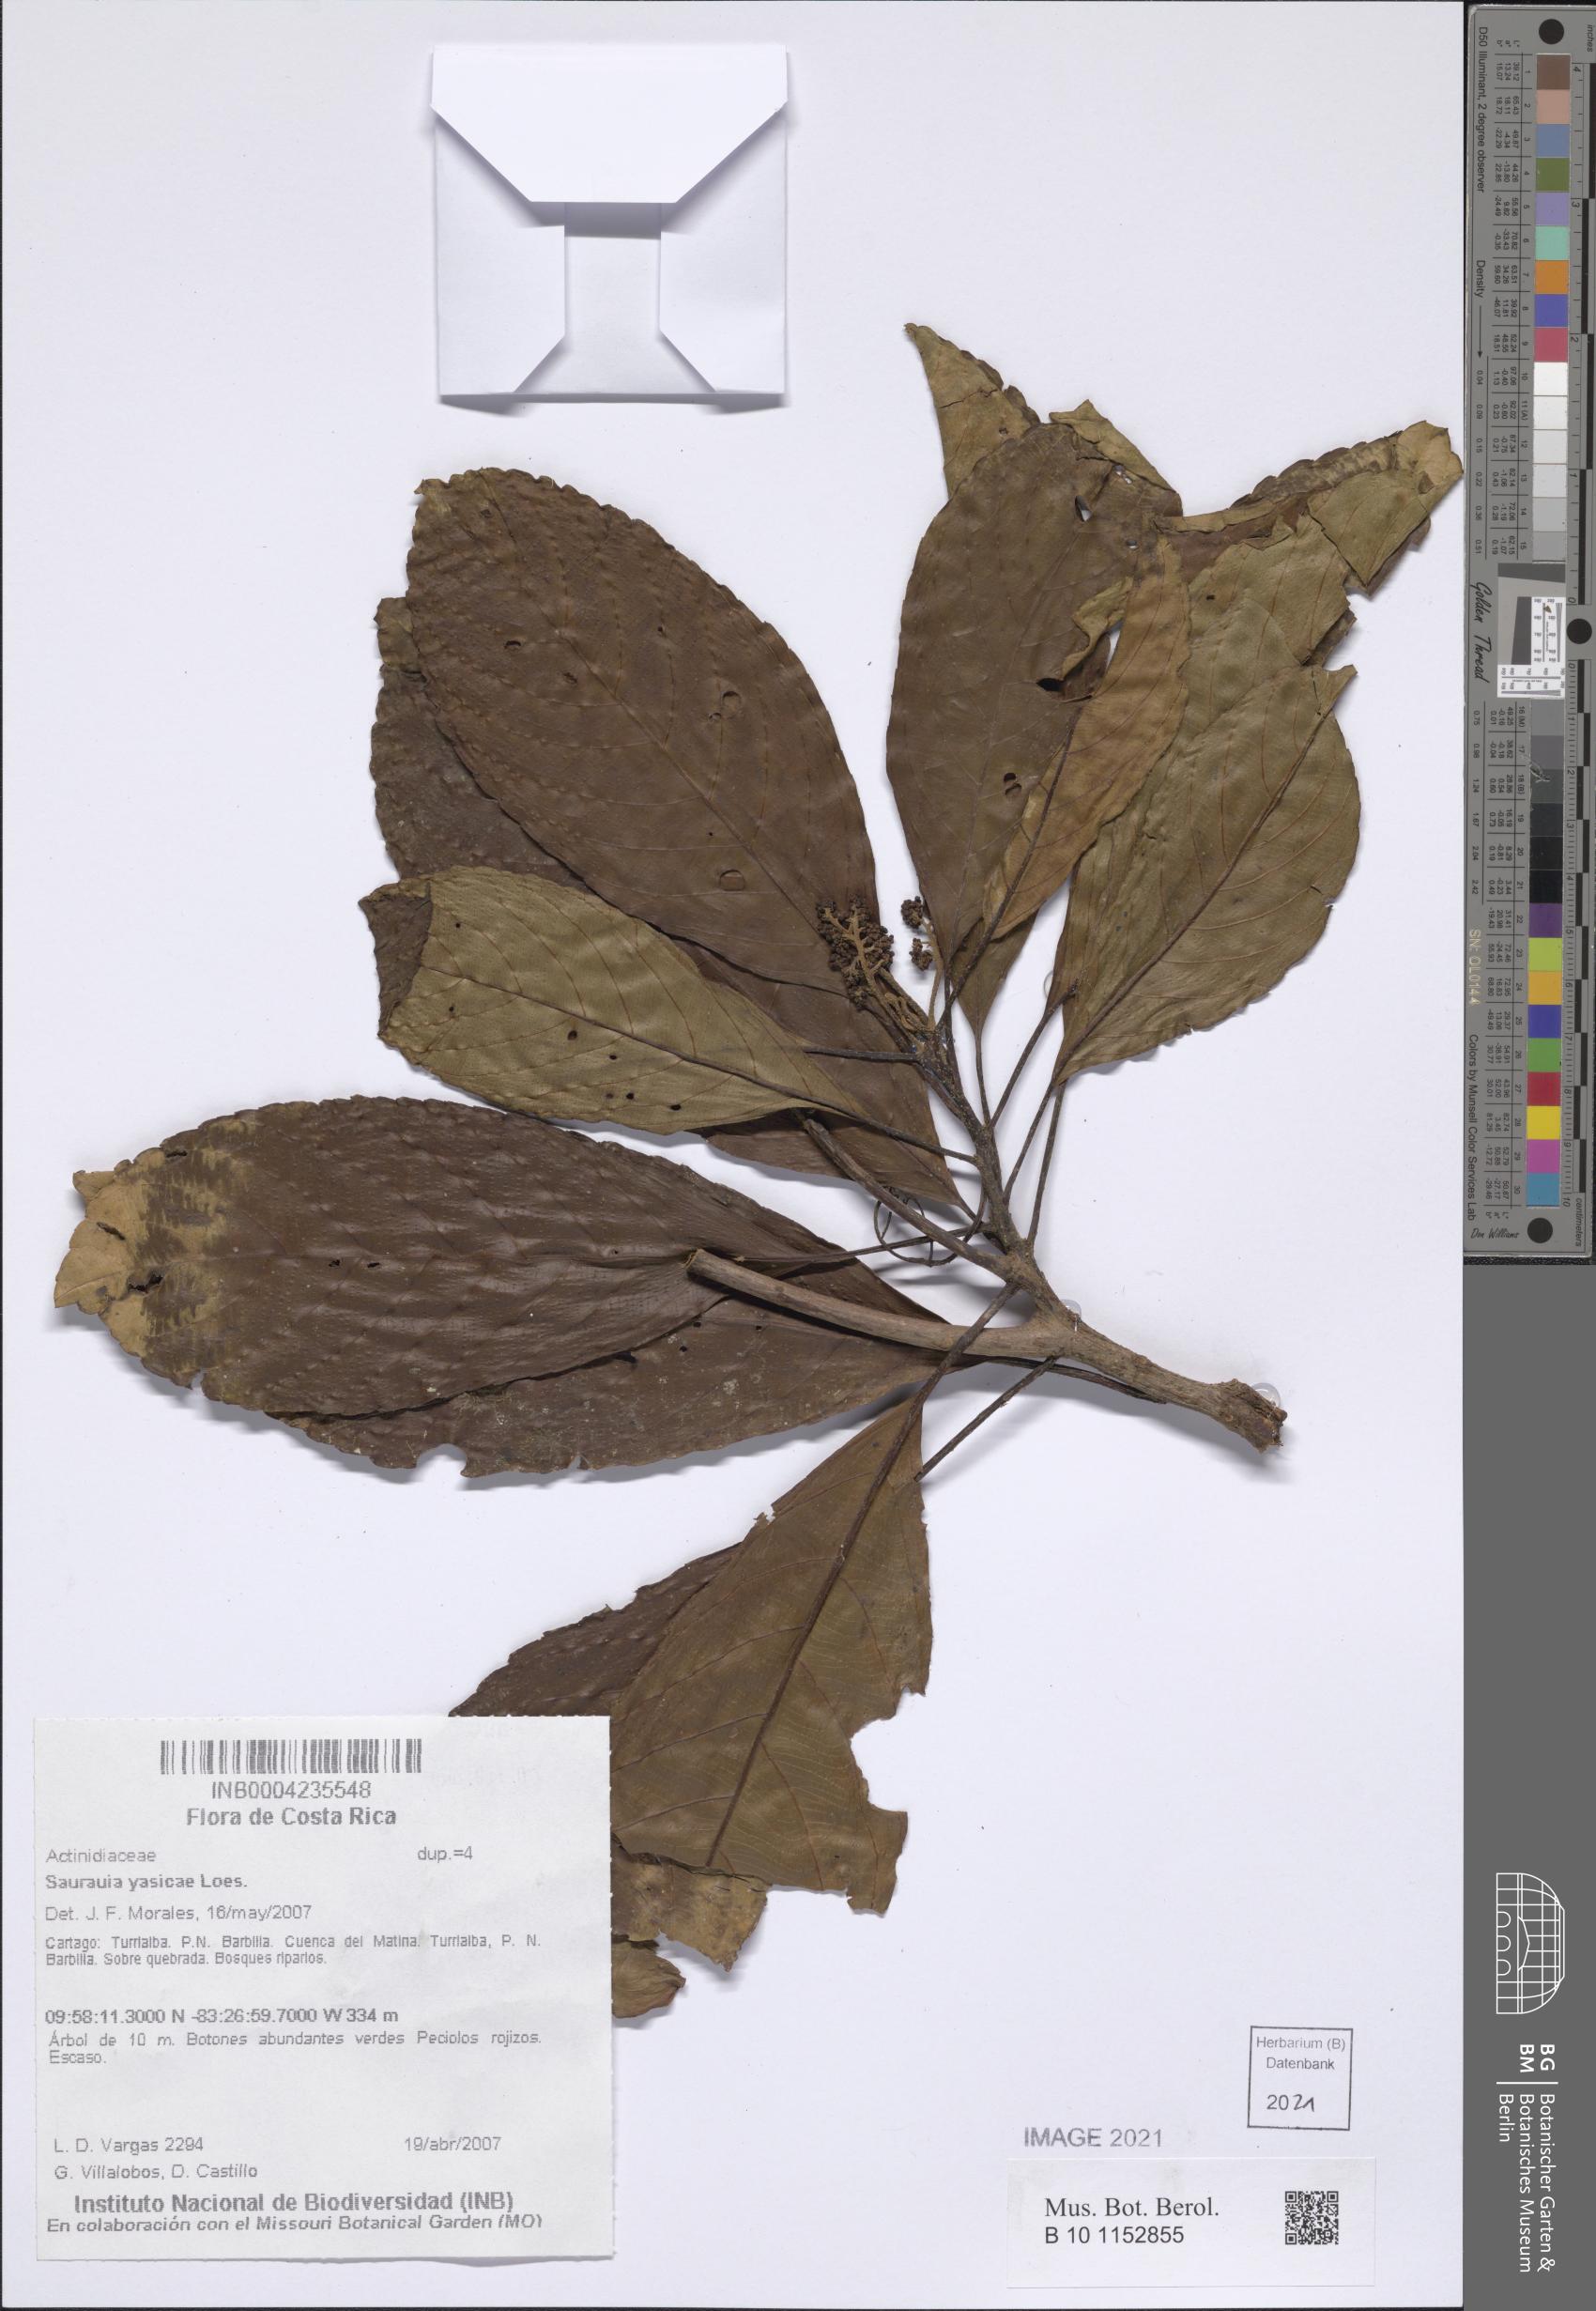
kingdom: Plantae
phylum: Tracheophyta
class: Magnoliopsida
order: Ericales
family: Actinidiaceae
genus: Saurauia
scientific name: Saurauia yasicae
